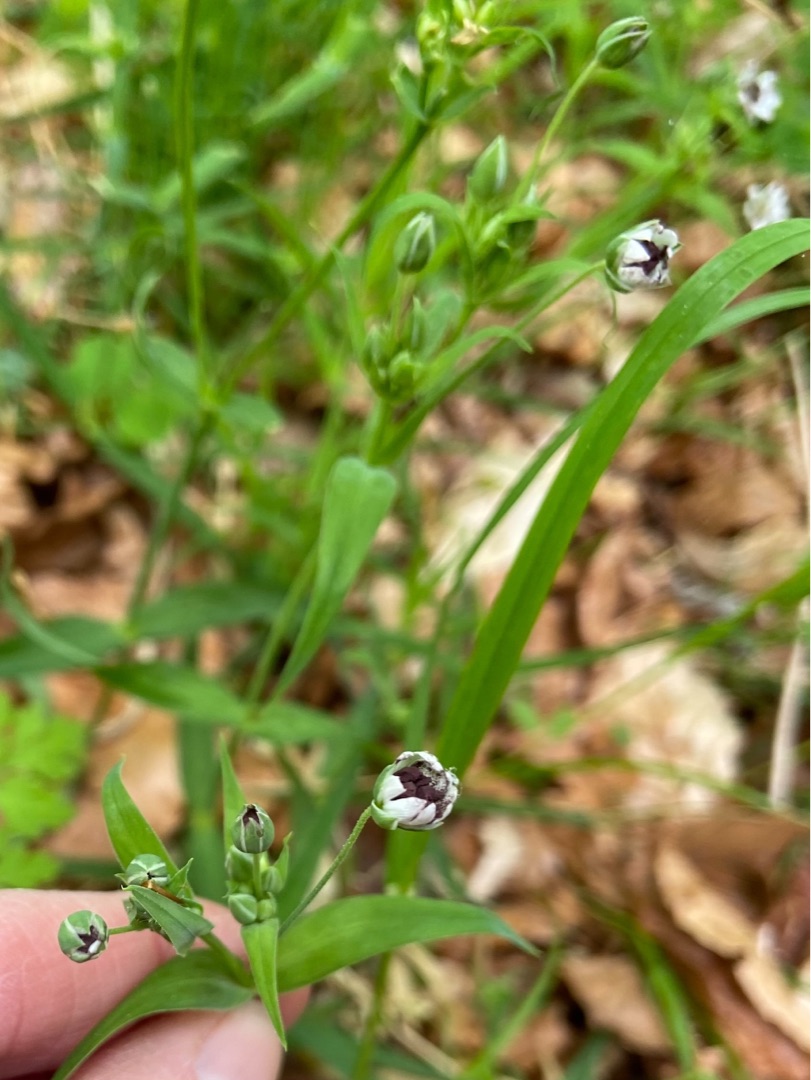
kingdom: Fungi
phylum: Basidiomycota
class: Microbotryomycetes
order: Microbotryales
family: Microbotryaceae
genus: Microbotryum
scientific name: Microbotryum stellariae
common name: Fladstjerne-støvbladrust
